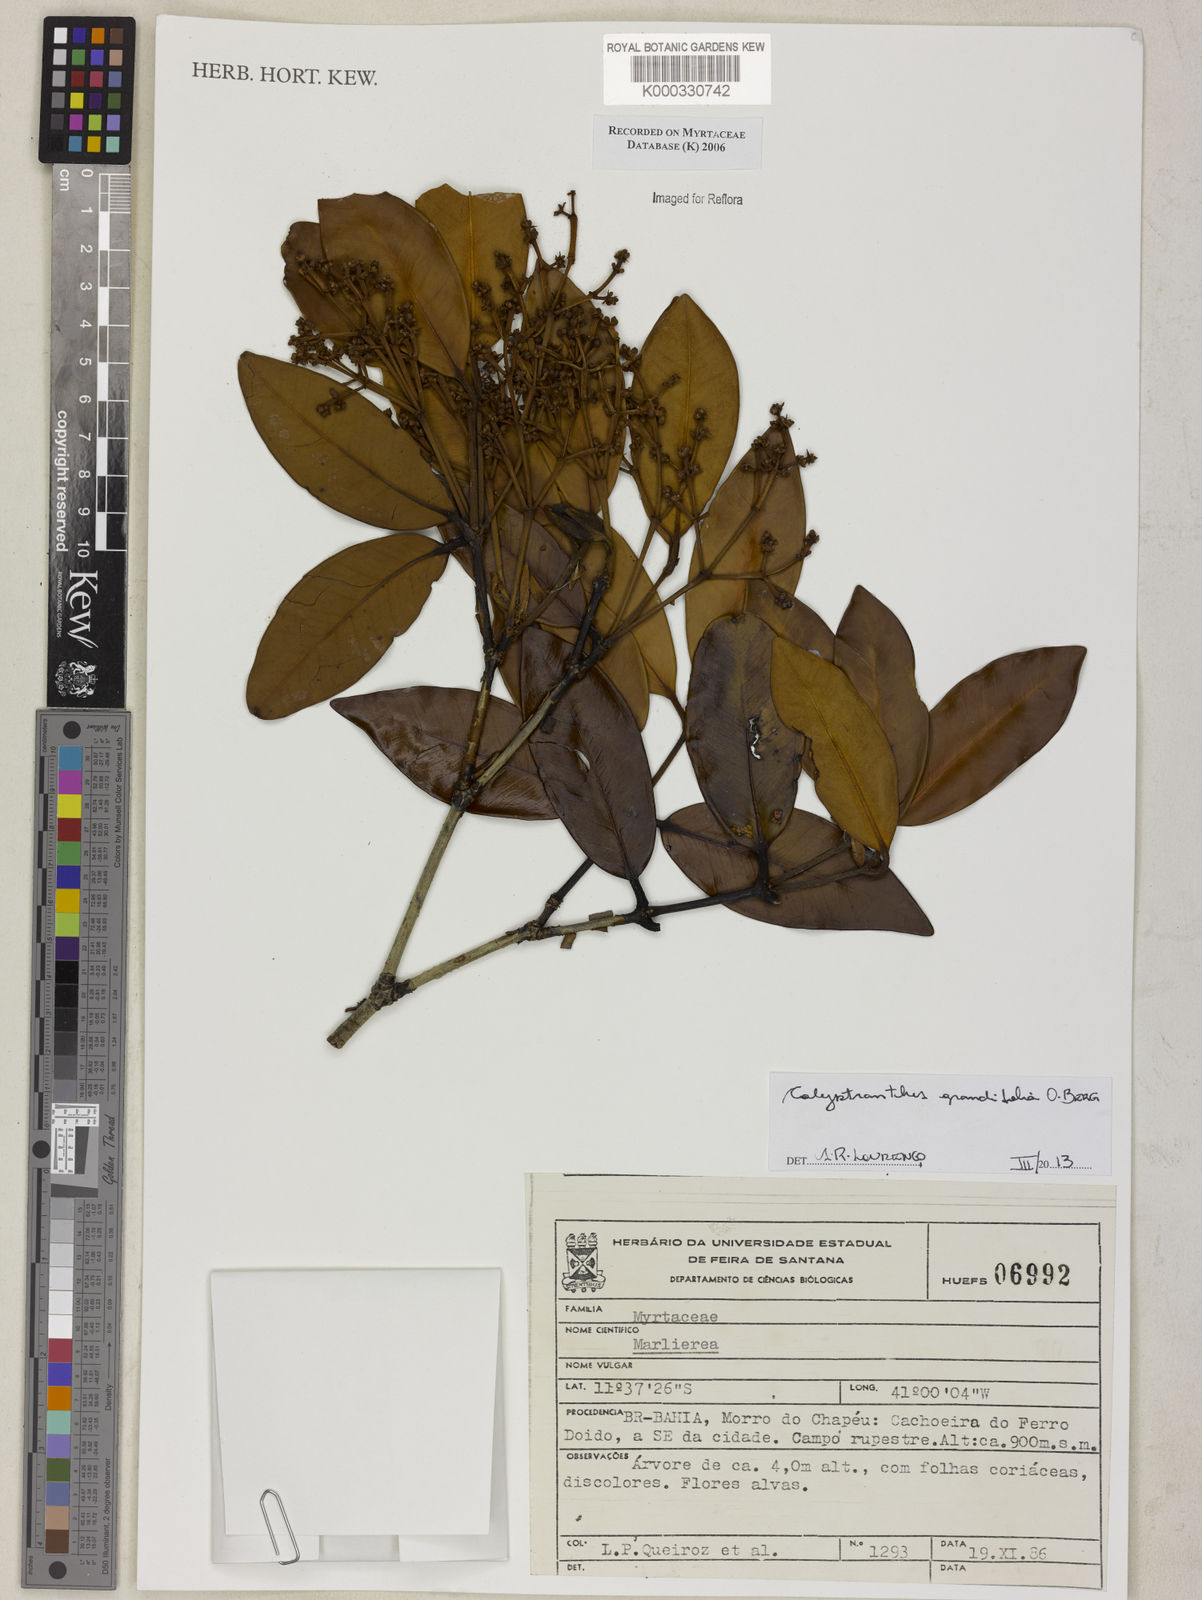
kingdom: Plantae
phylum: Tracheophyta
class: Magnoliopsida
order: Myrtales
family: Myrtaceae
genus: Marlierea
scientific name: Marlierea
